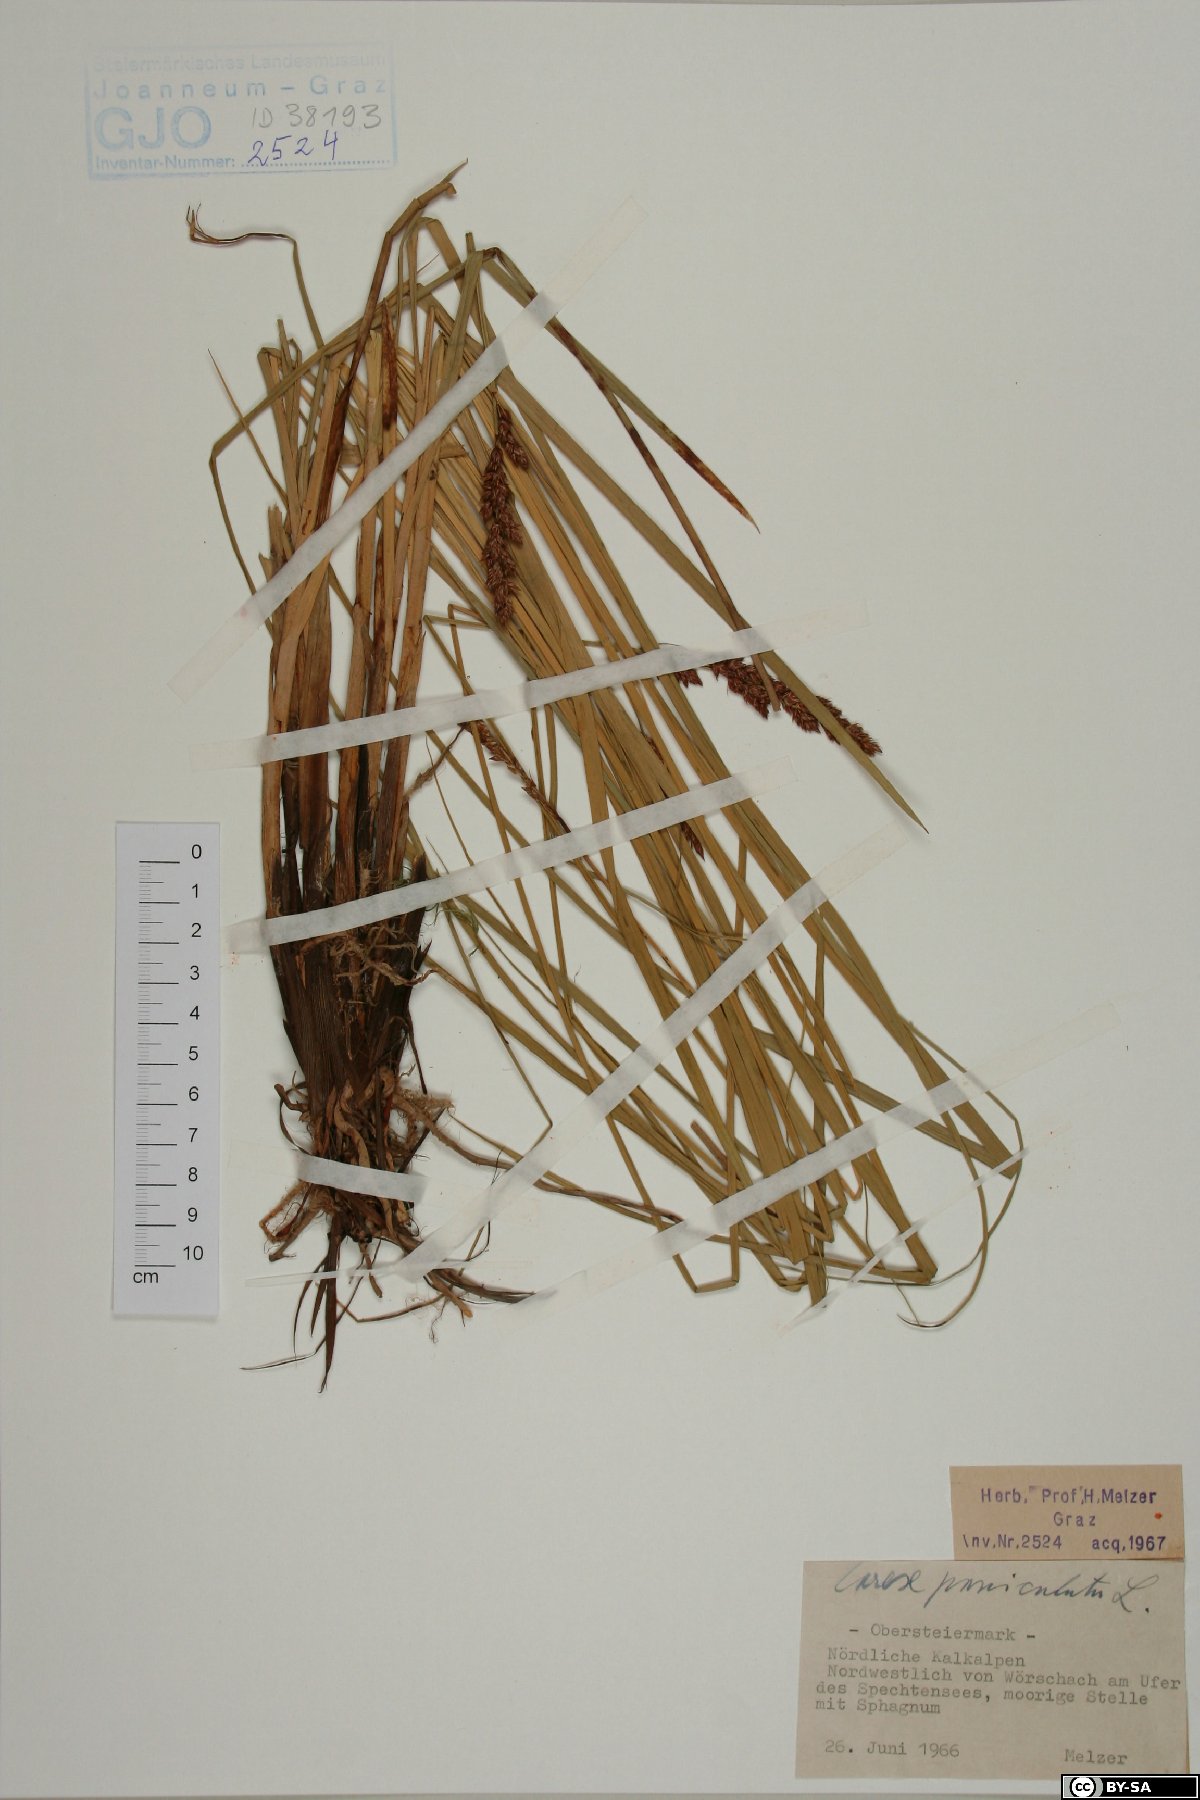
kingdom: Plantae
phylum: Tracheophyta
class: Liliopsida
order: Poales
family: Cyperaceae
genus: Carex
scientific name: Carex paniculata
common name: Greater tussock-sedge
